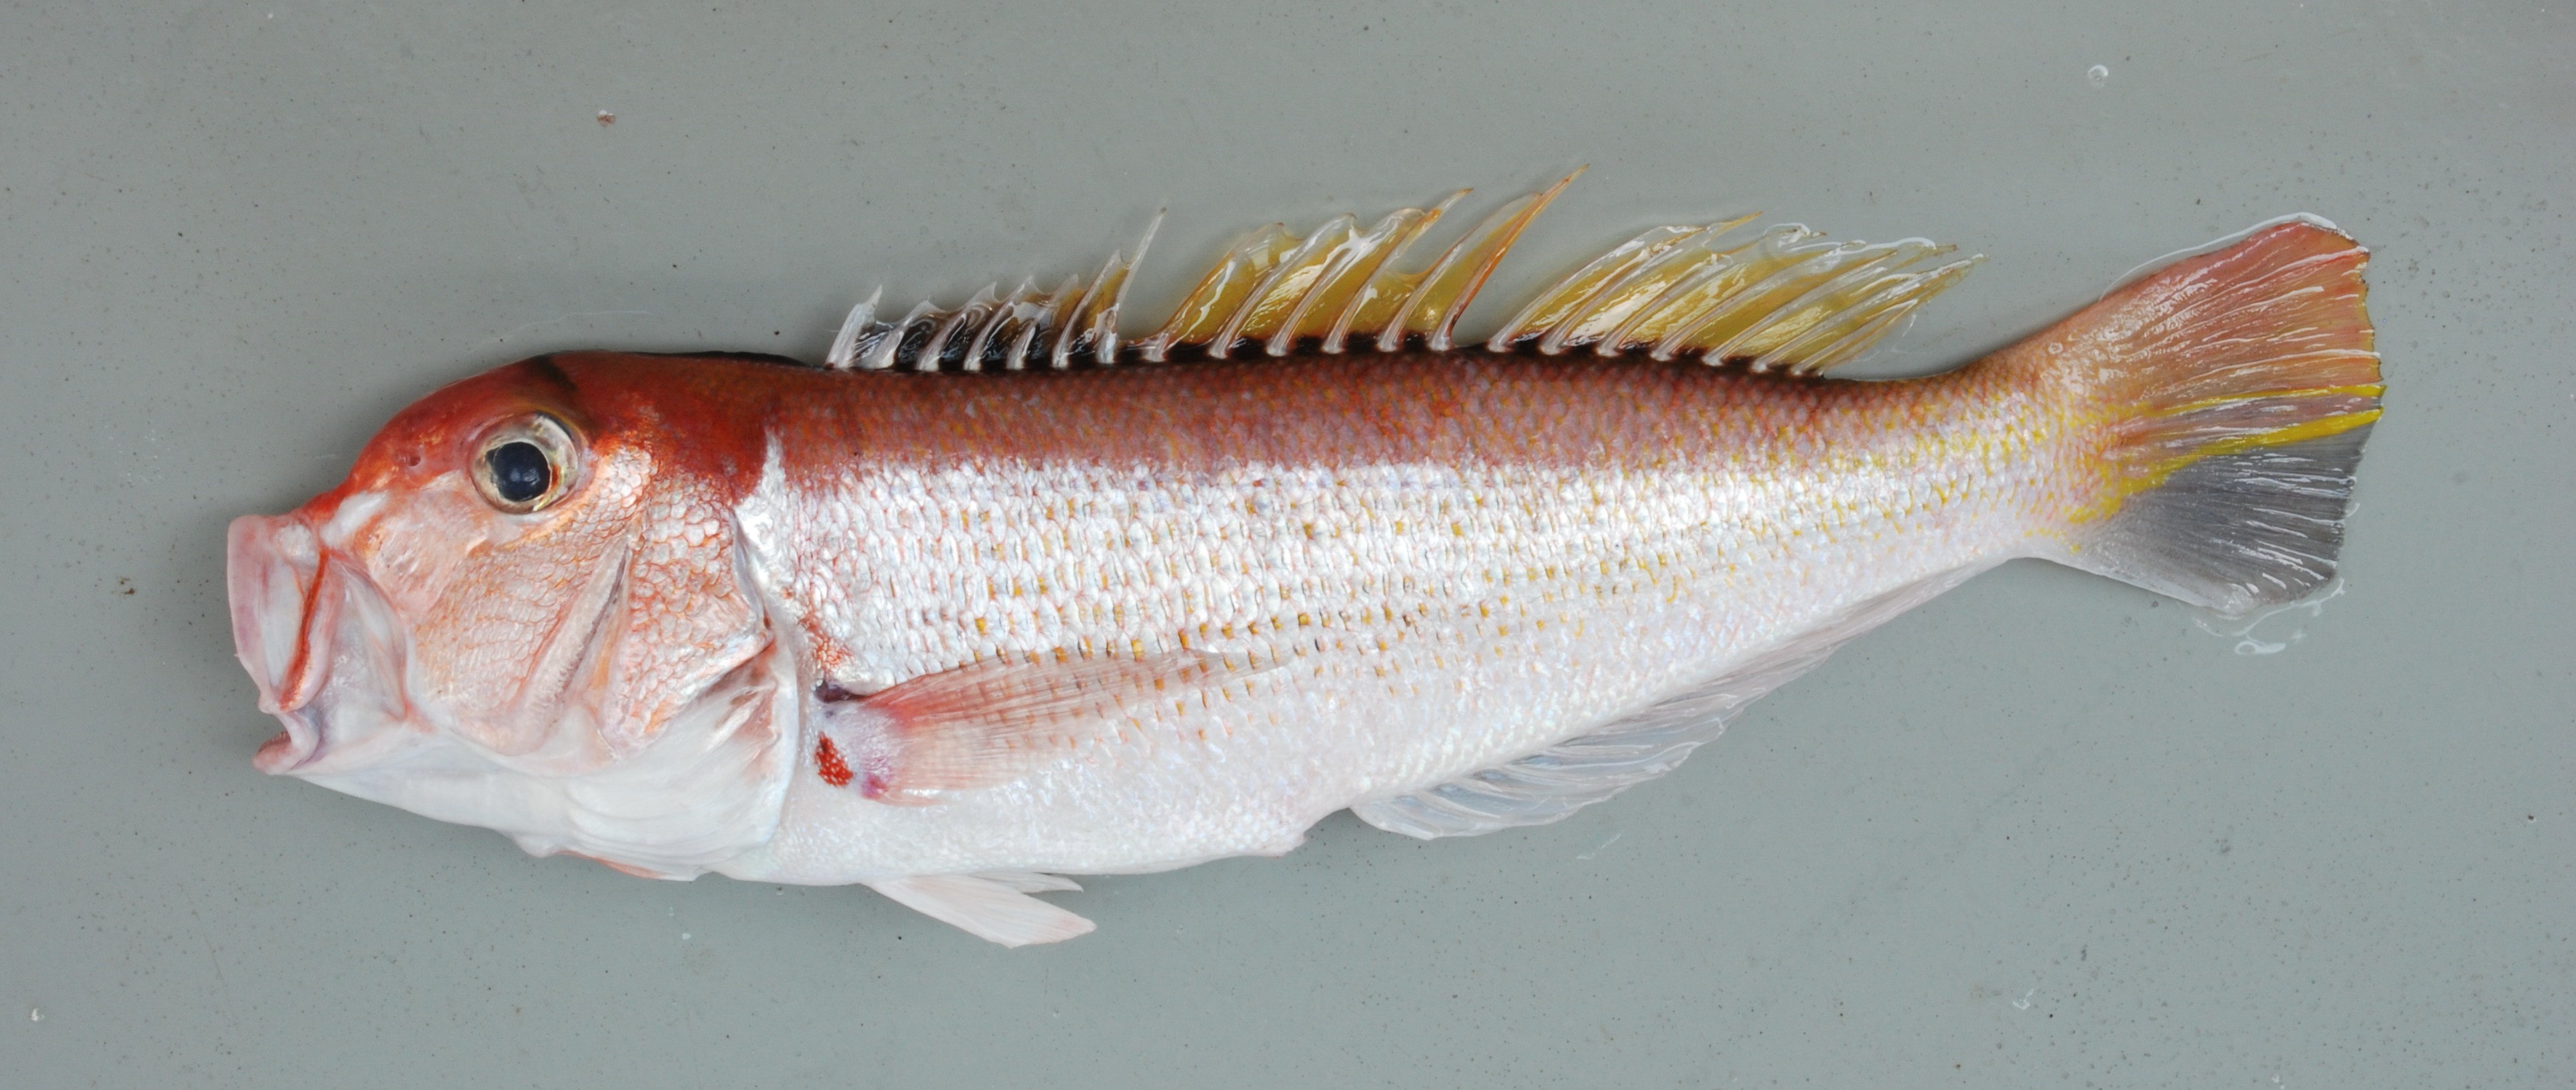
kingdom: Animalia
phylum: Chordata
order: Perciformes
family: Malacanthidae
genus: Branchiostegus
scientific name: Branchiostegus sawakinensis
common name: Freckled tilefish
